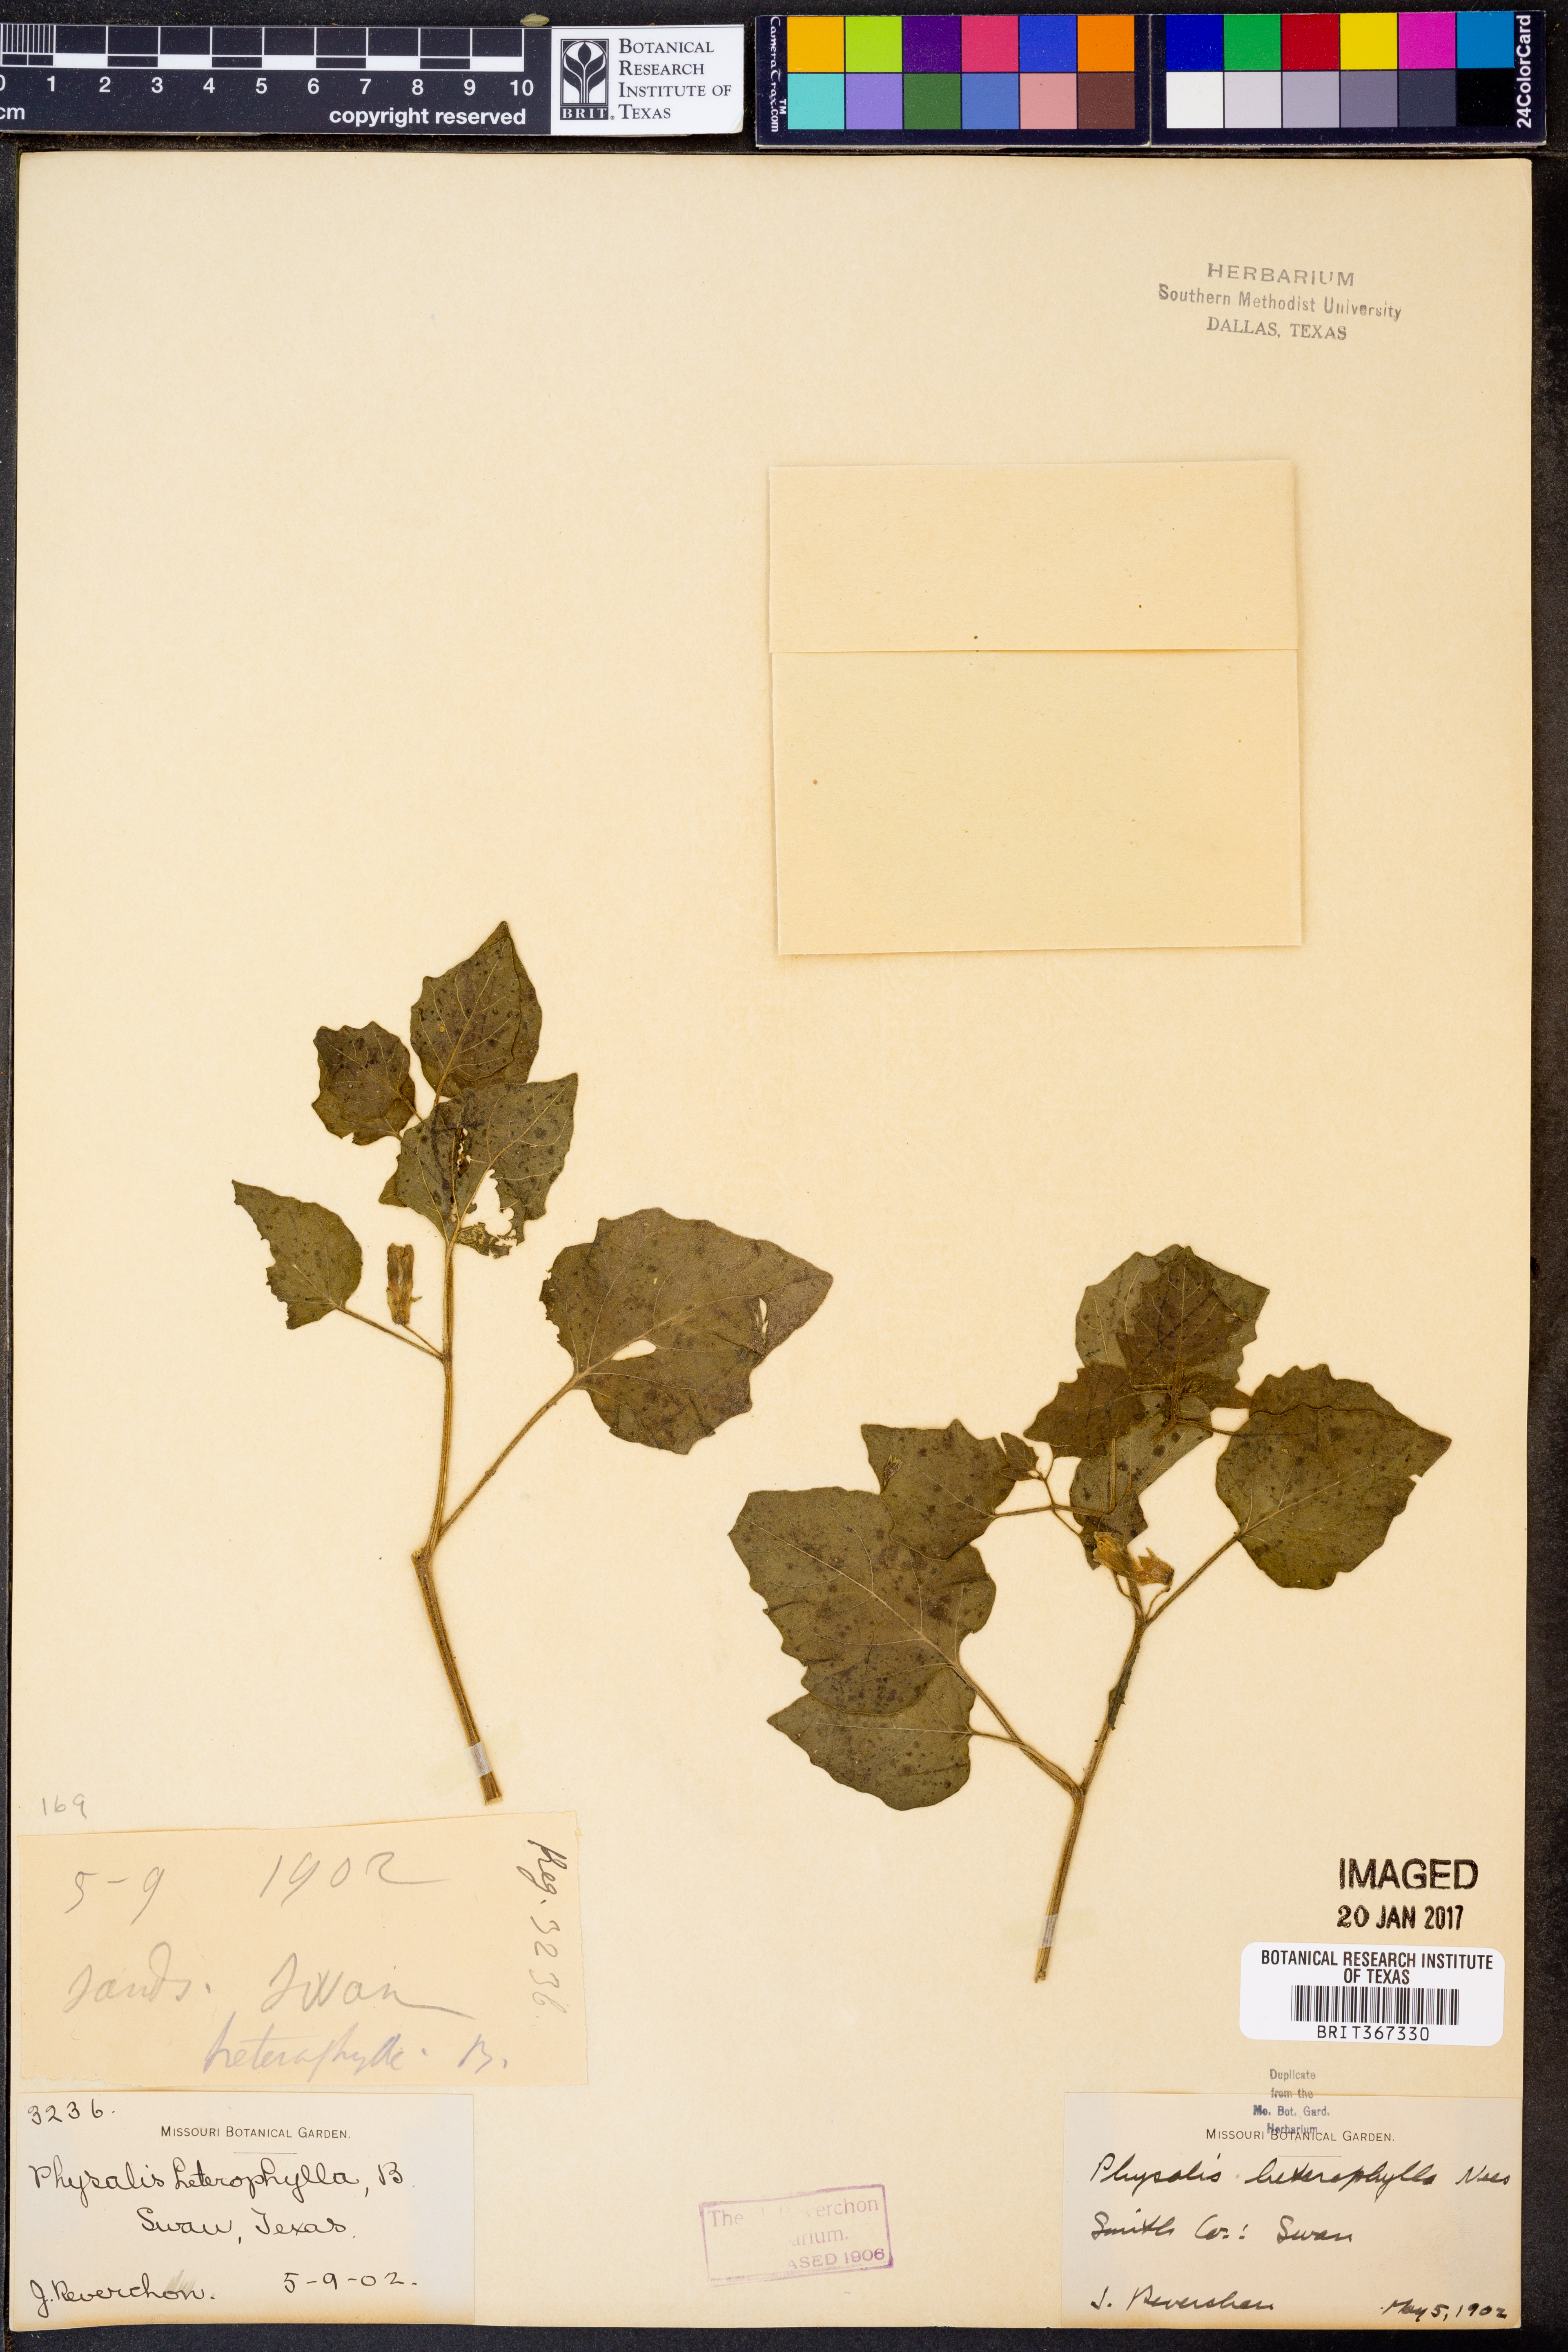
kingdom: Plantae
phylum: Tracheophyta
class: Magnoliopsida
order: Solanales
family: Solanaceae
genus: Physalis
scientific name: Physalis macrosperma
